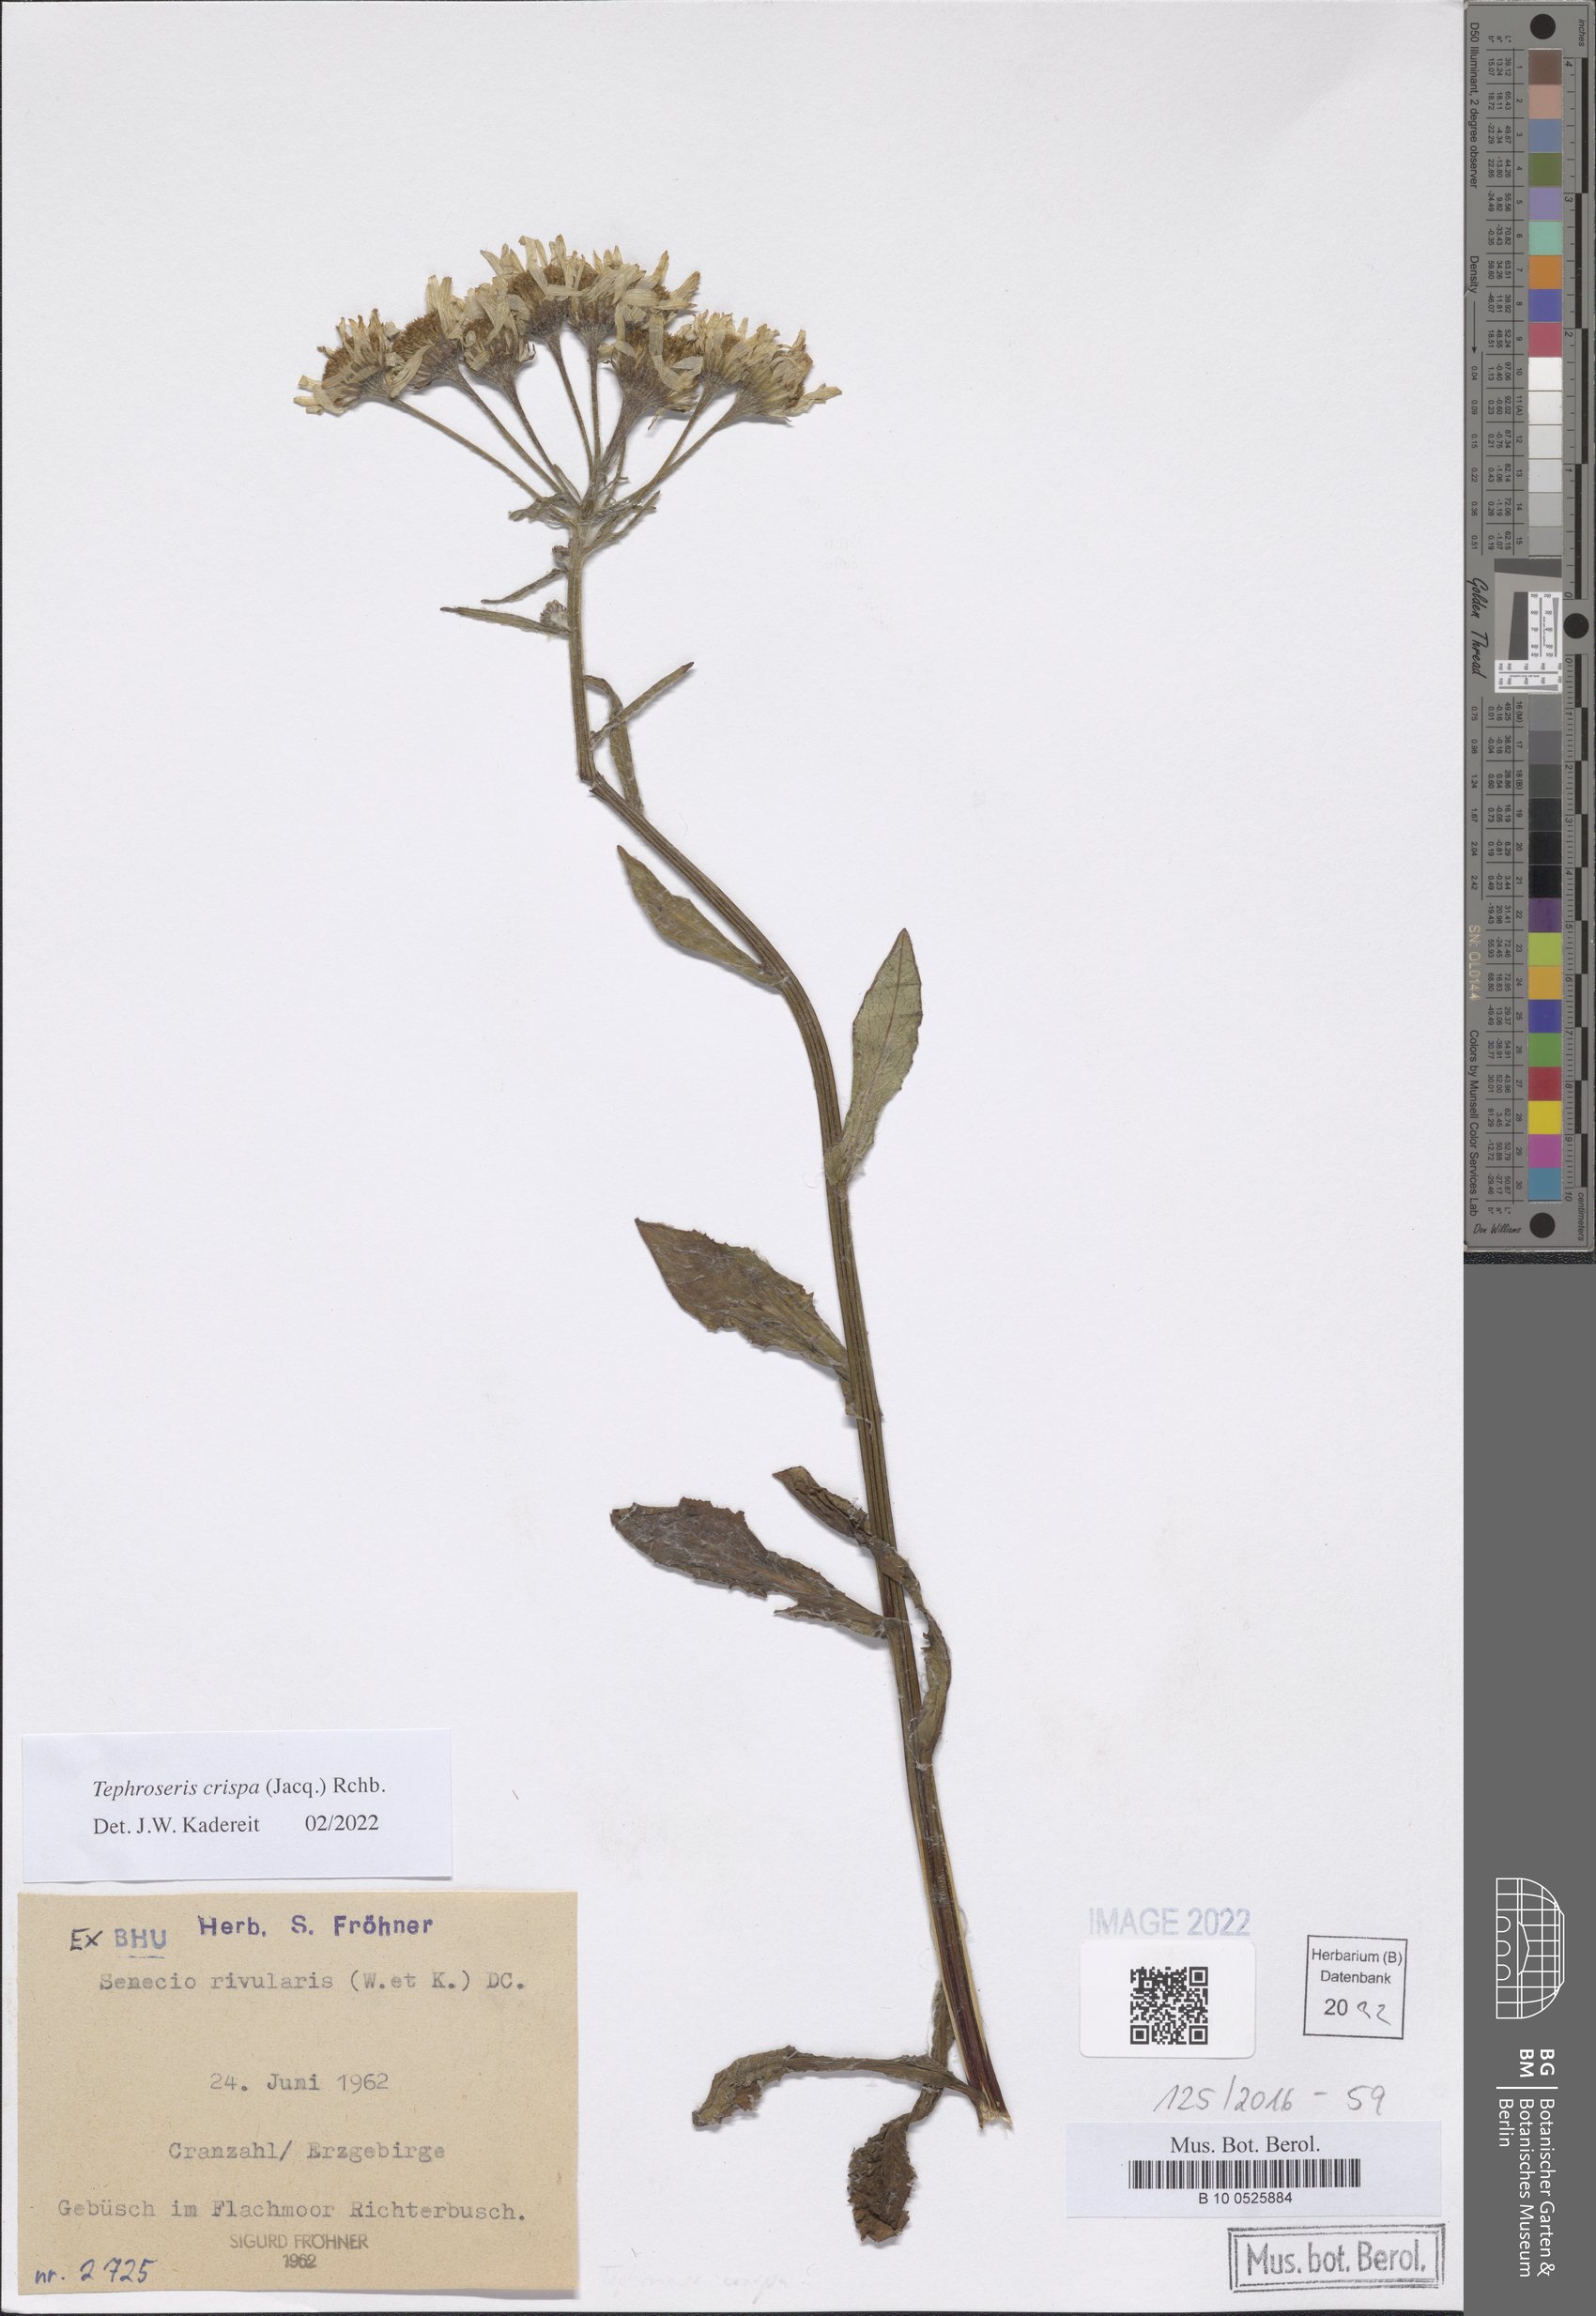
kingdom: Plantae
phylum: Tracheophyta
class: Magnoliopsida
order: Asterales
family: Asteraceae
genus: Tephroseris
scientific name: Tephroseris crispa
